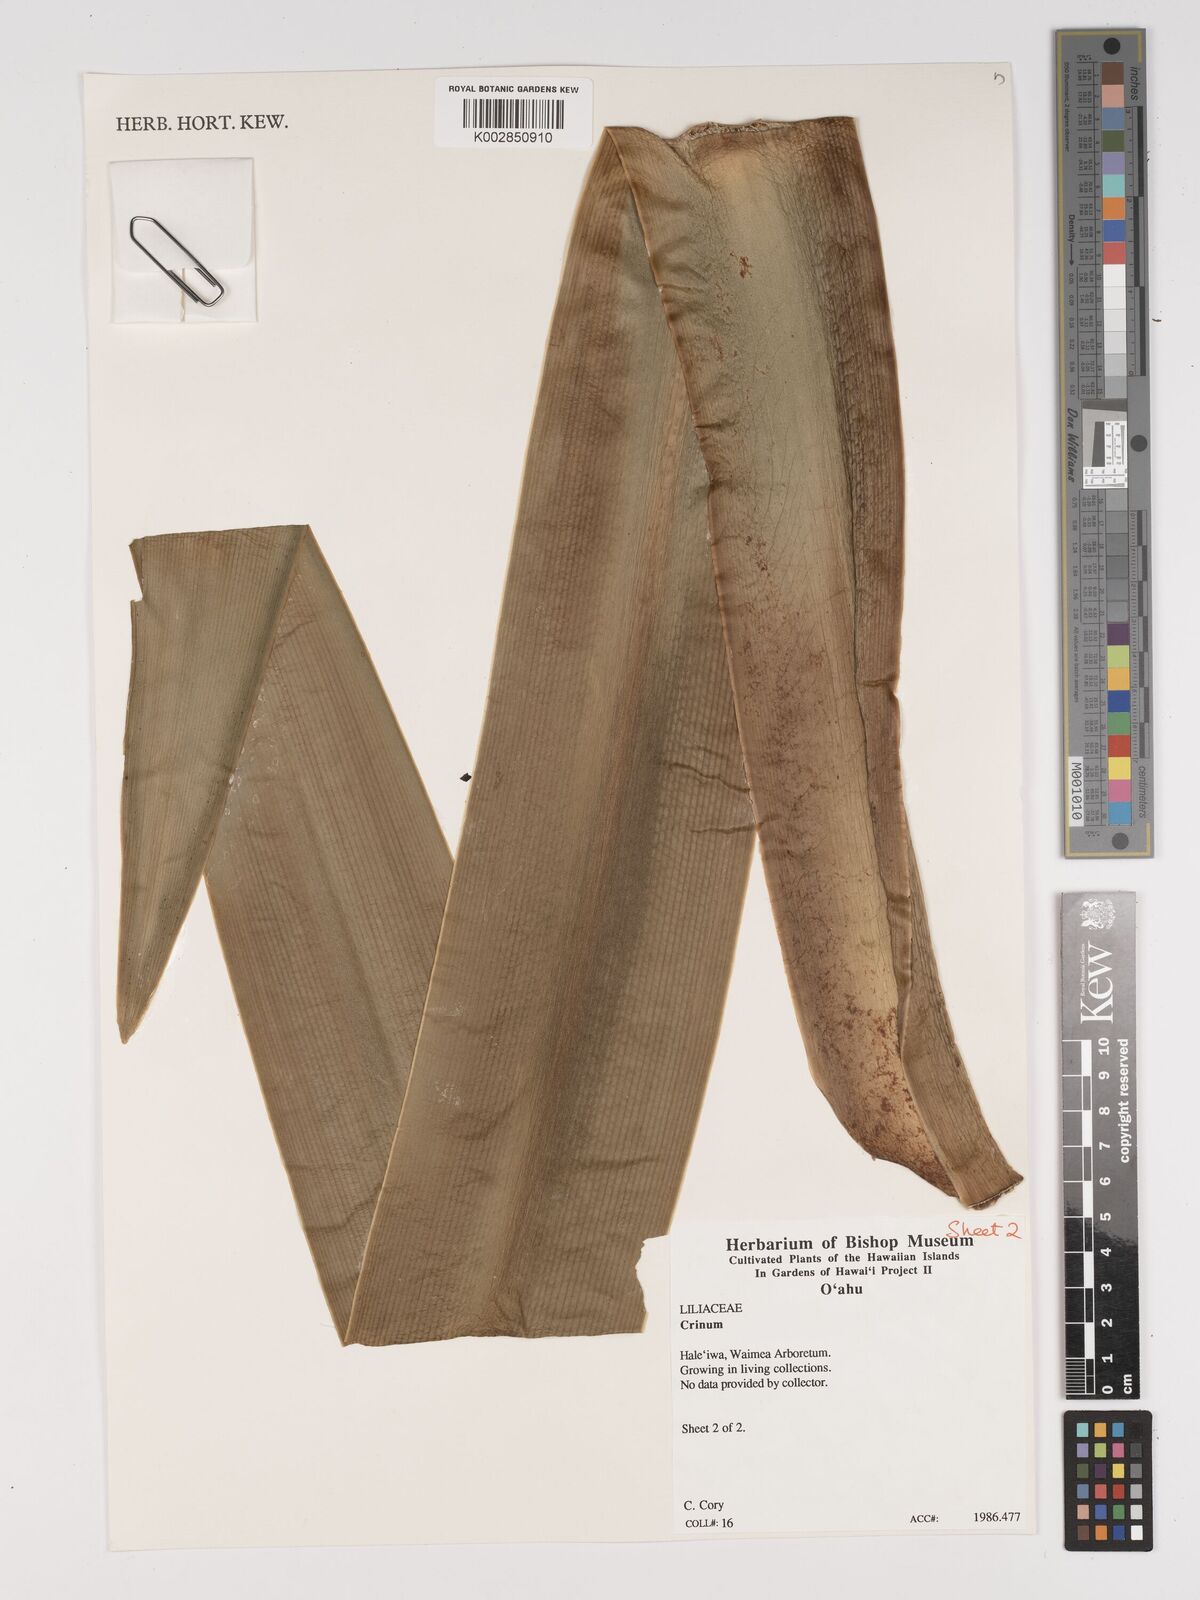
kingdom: Plantae
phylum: Tracheophyta
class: Liliopsida
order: Asparagales
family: Amaryllidaceae
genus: Crinum
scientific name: Crinum asiaticum
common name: Poisonbulb
